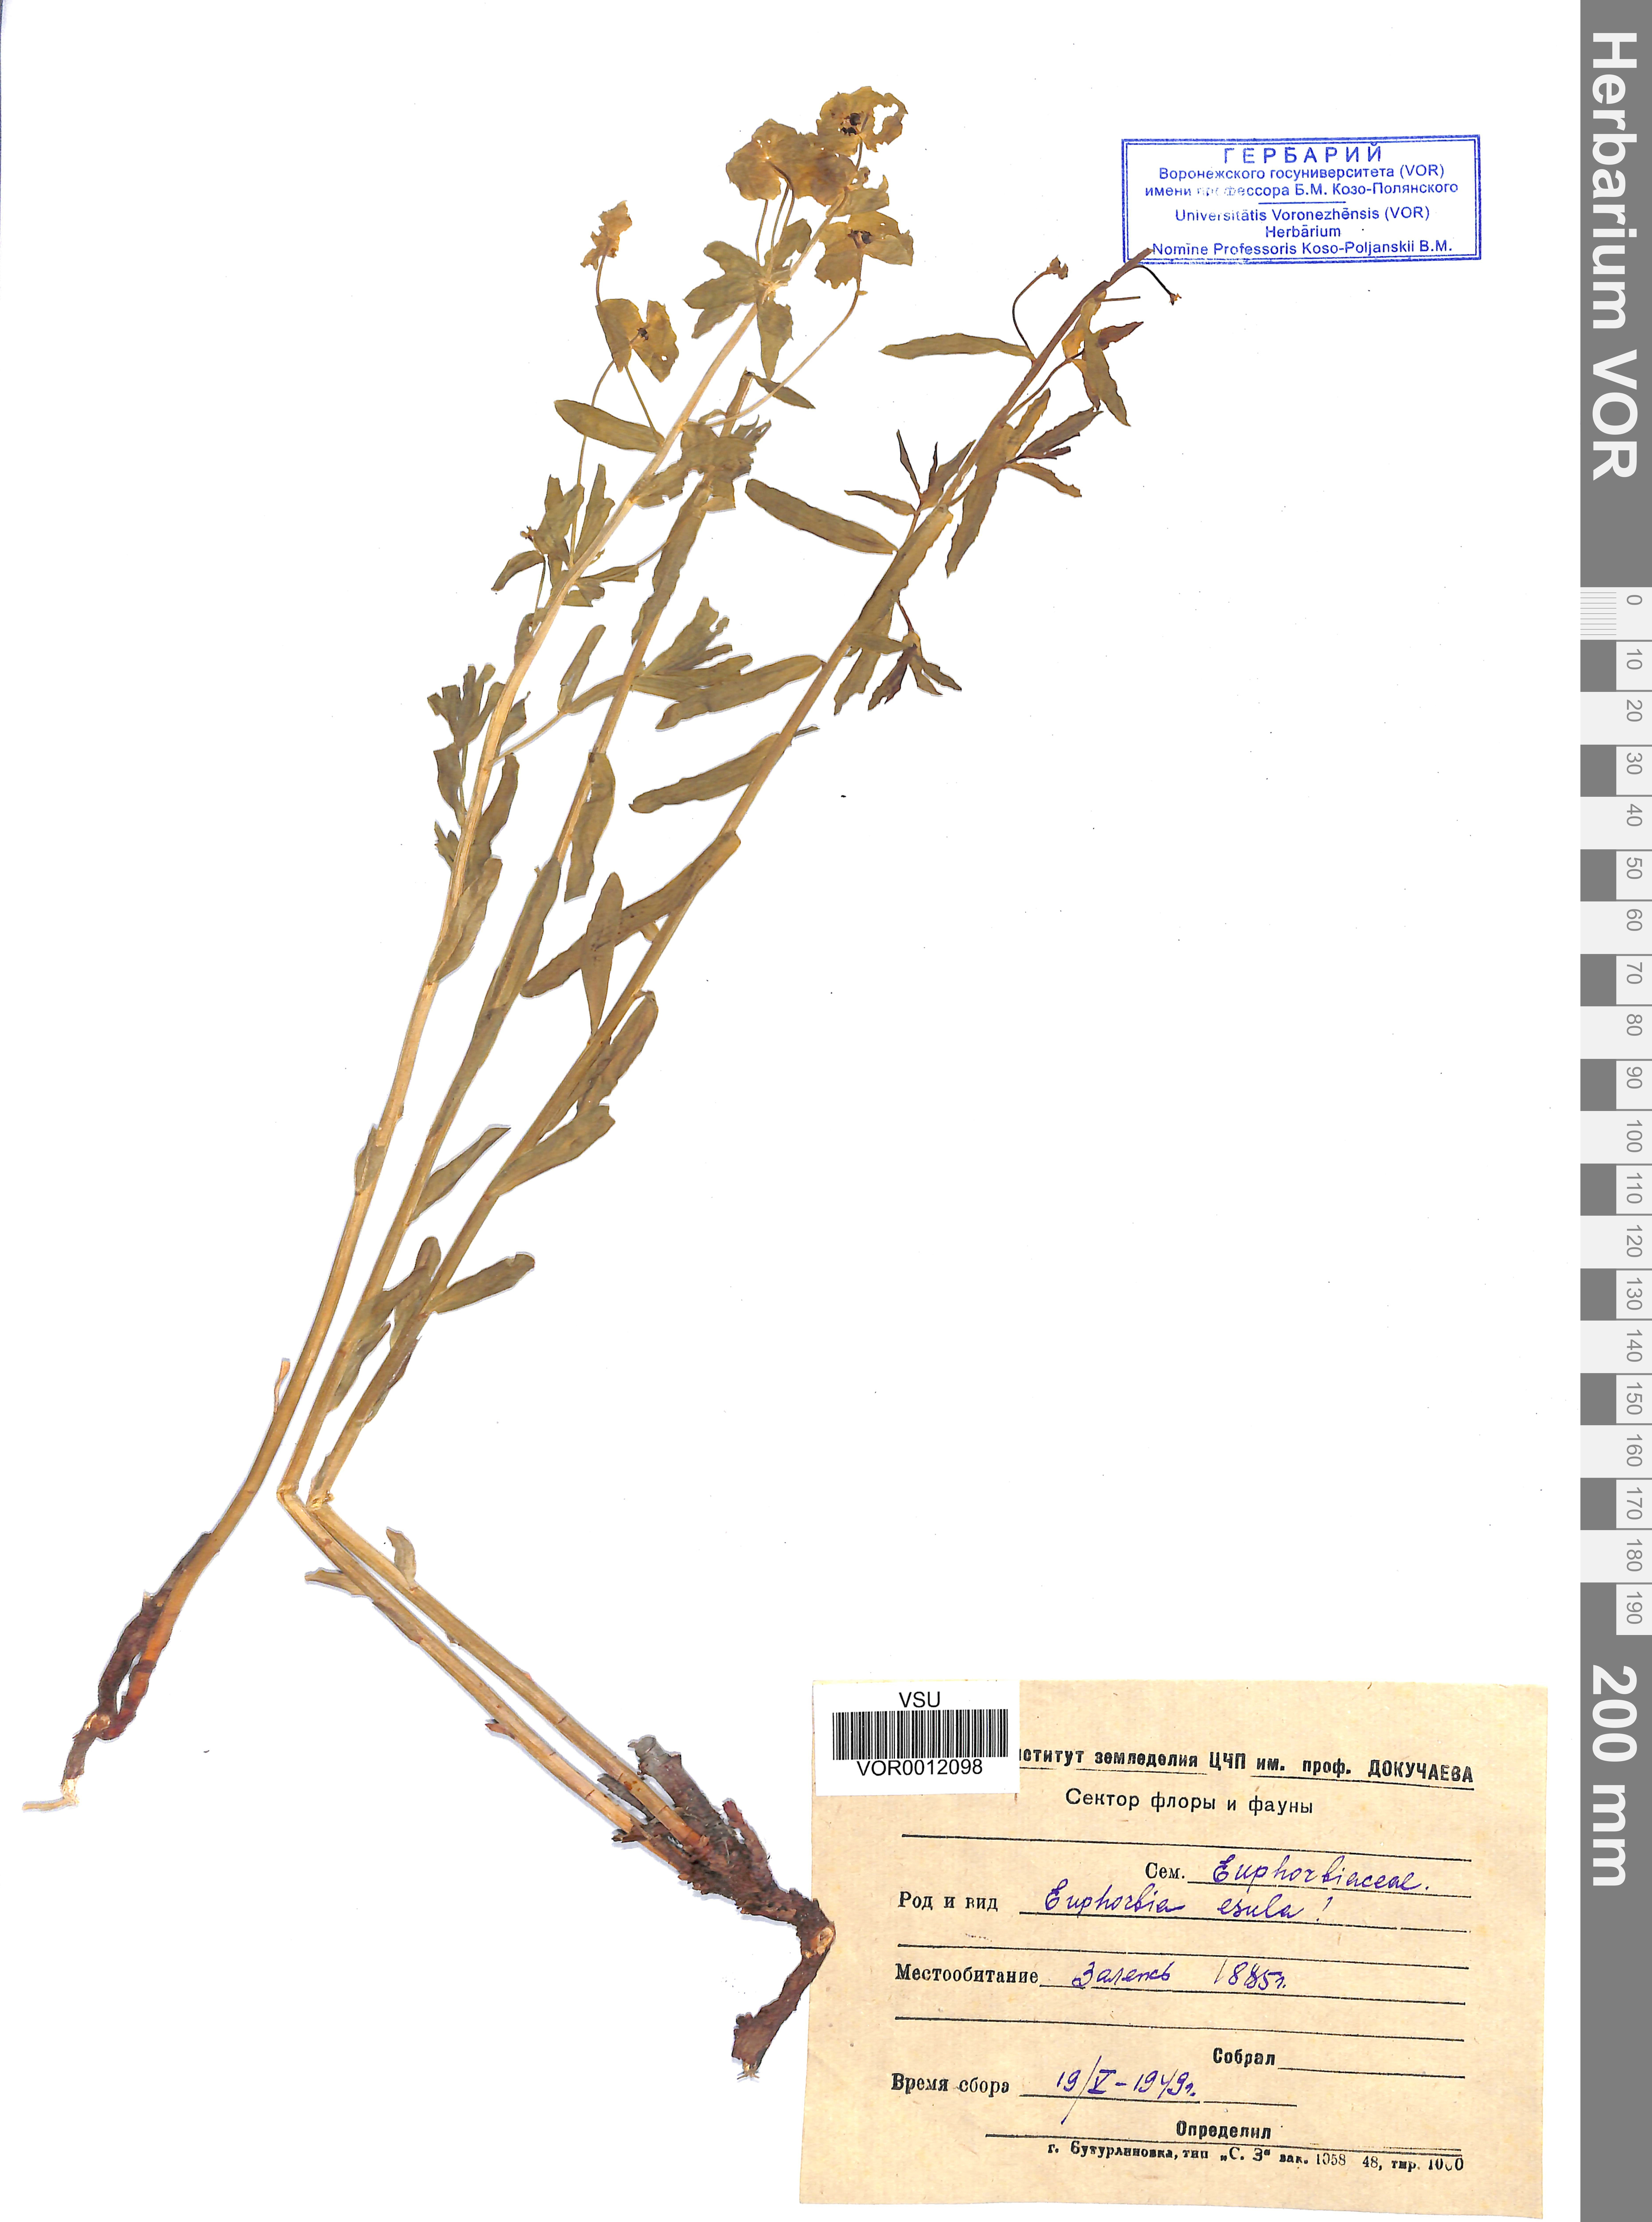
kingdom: Plantae
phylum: Tracheophyta
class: Magnoliopsida
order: Malpighiales
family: Euphorbiaceae
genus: Euphorbia
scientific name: Euphorbia esula
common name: Leafy spurge
